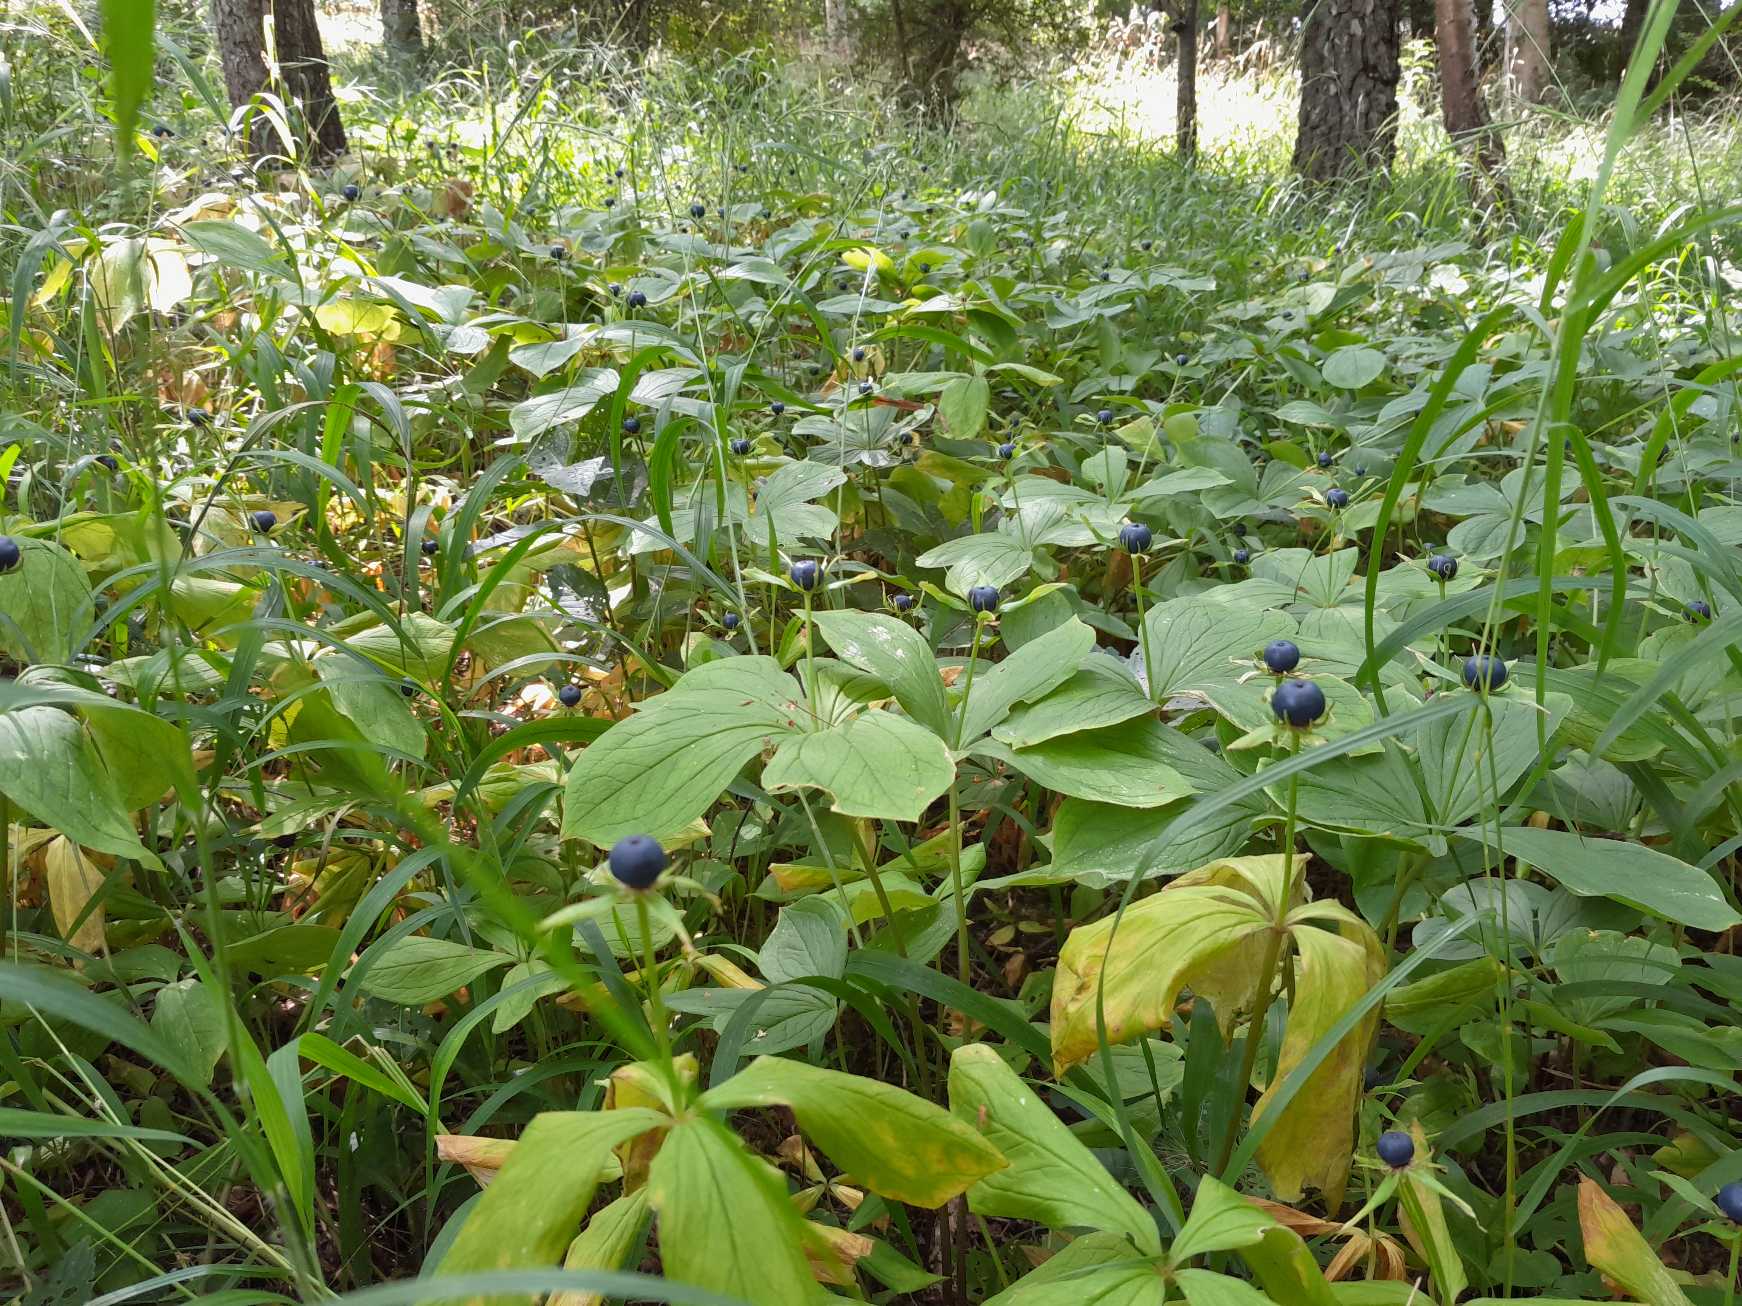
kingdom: Plantae
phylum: Tracheophyta
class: Liliopsida
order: Liliales
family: Melanthiaceae
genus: Paris
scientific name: Paris quadrifolia
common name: Firblad
